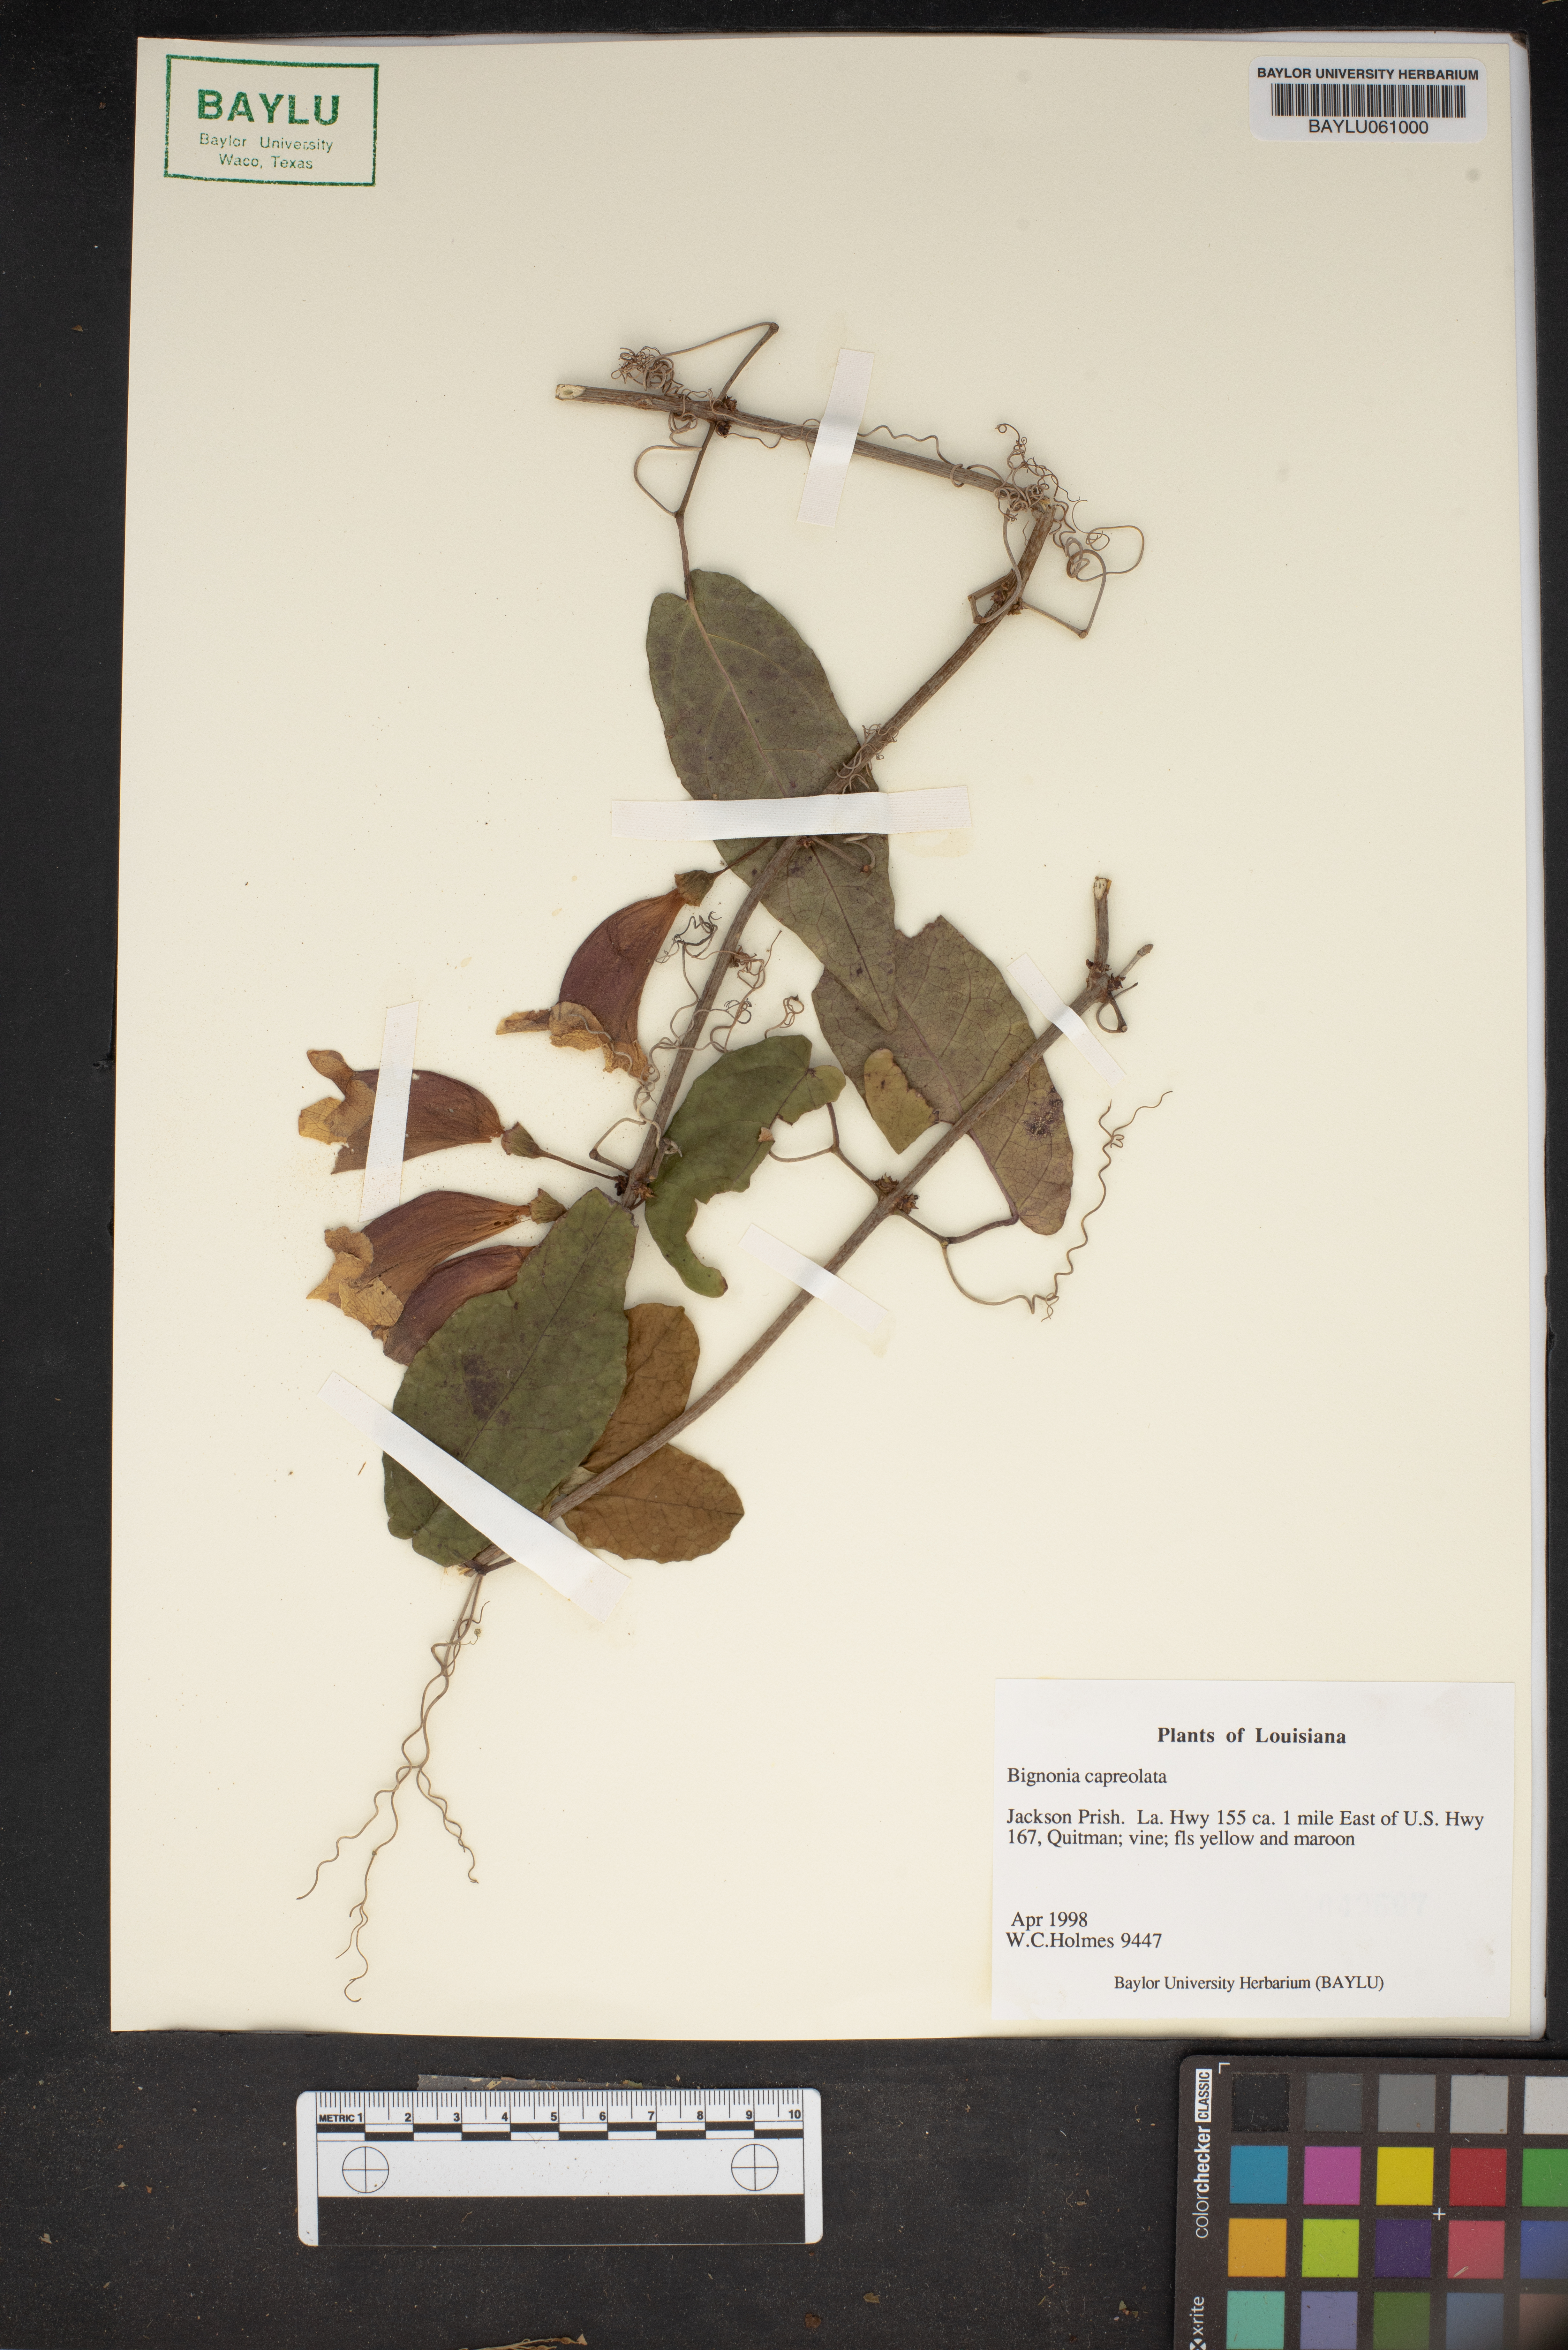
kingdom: Plantae
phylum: Tracheophyta
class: Magnoliopsida
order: Lamiales
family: Bignoniaceae
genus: Bignonia
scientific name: Bignonia capreolata
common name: Crossvine
